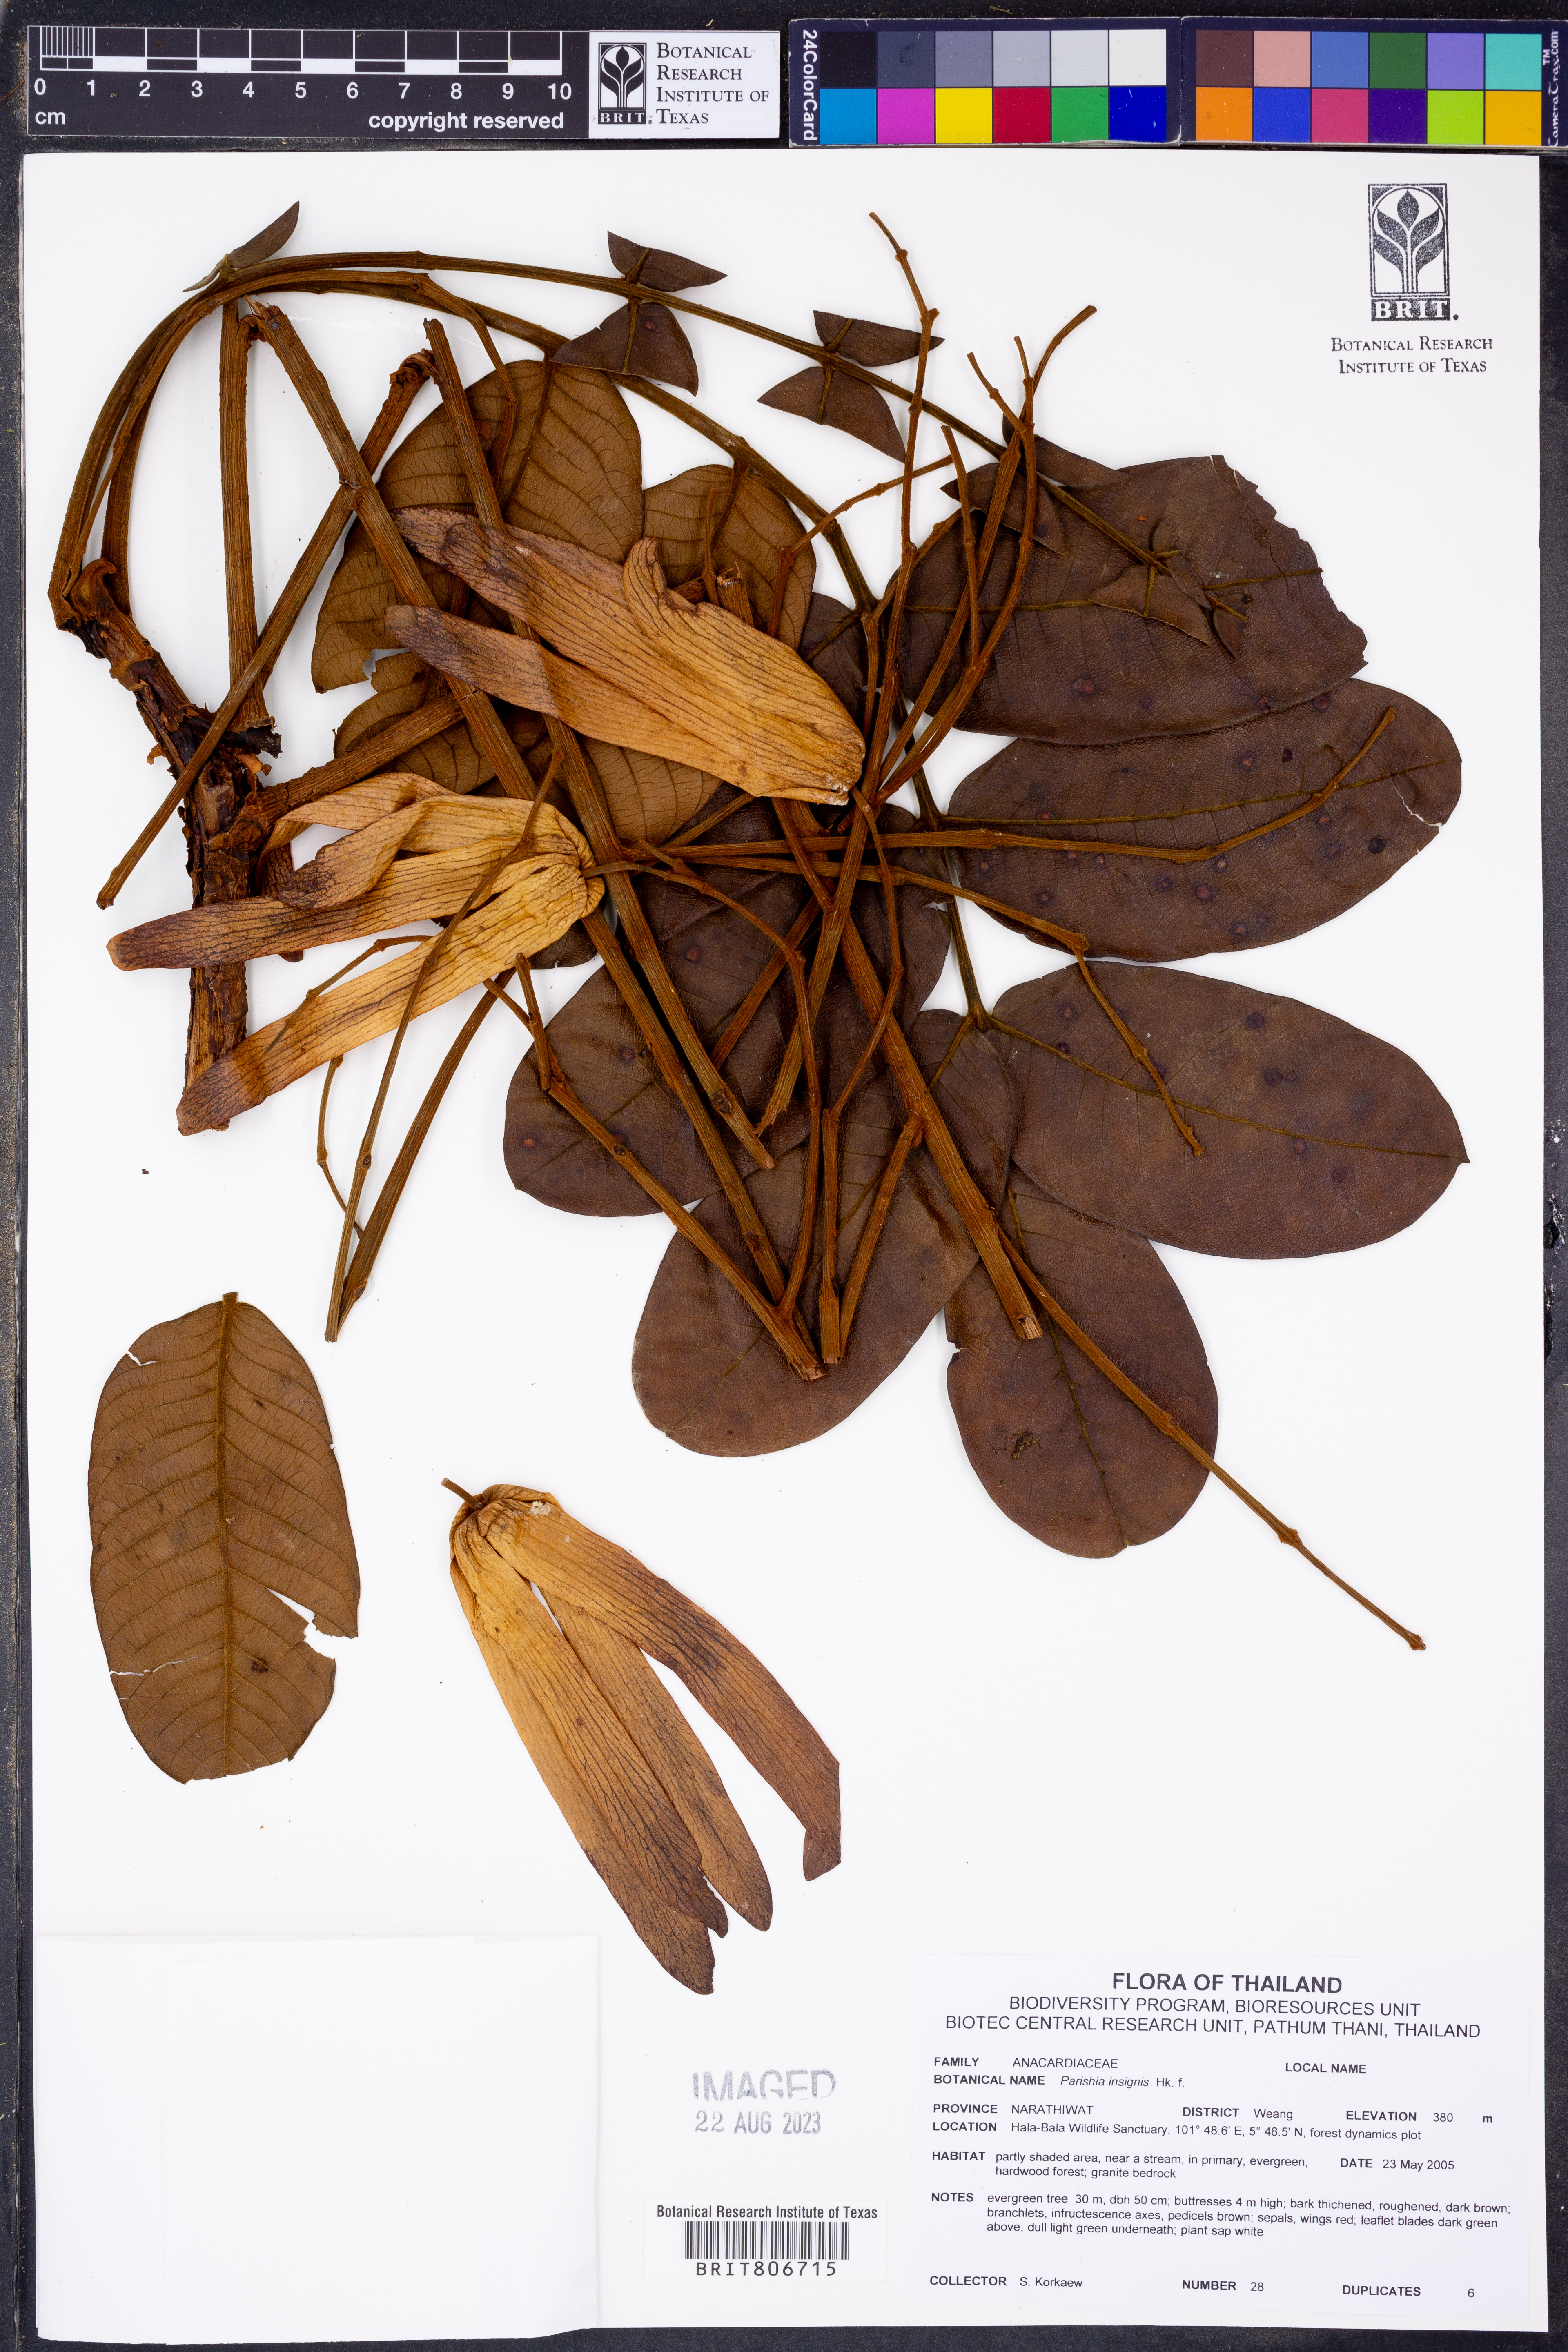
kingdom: Plantae
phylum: Tracheophyta
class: Magnoliopsida
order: Sapindales
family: Anacardiaceae
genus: Parishia
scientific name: Parishia insignis
